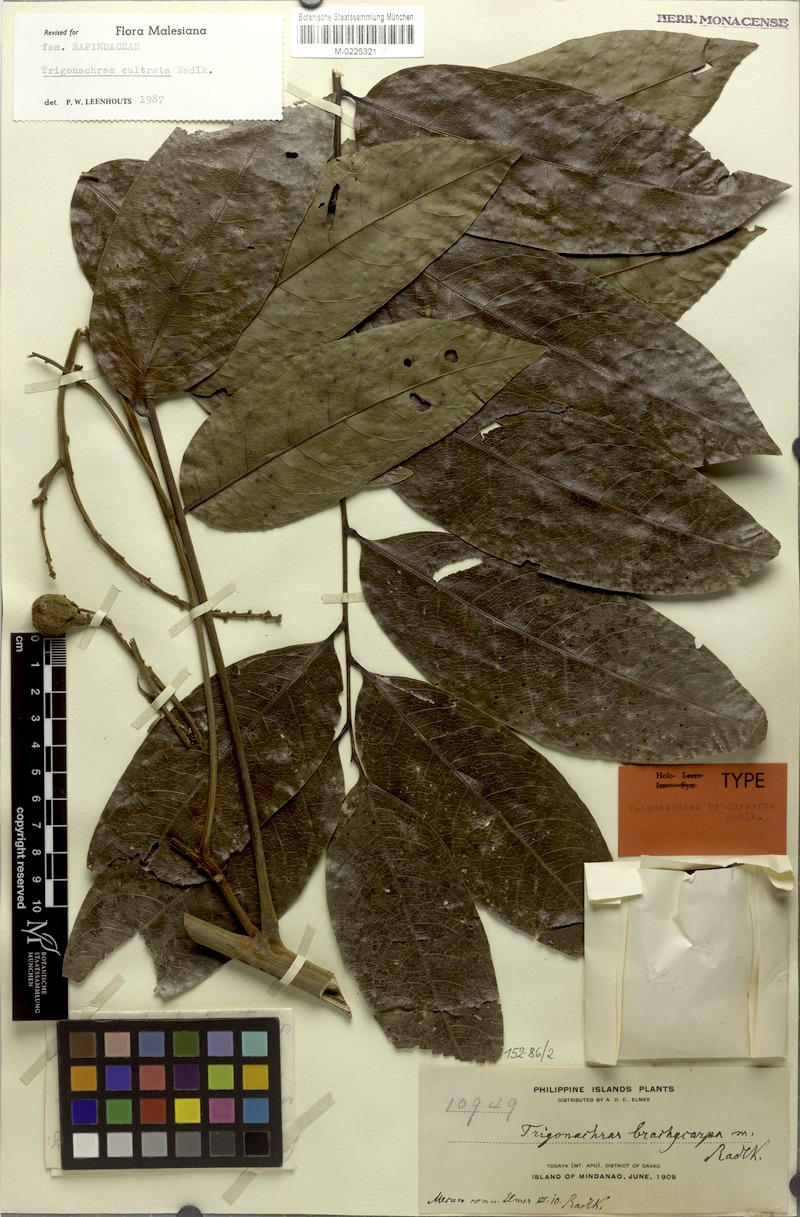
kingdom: Plantae
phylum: Tracheophyta
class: Magnoliopsida
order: Sapindales
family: Sapindaceae
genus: Trigonachras
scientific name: Trigonachras cultrata
